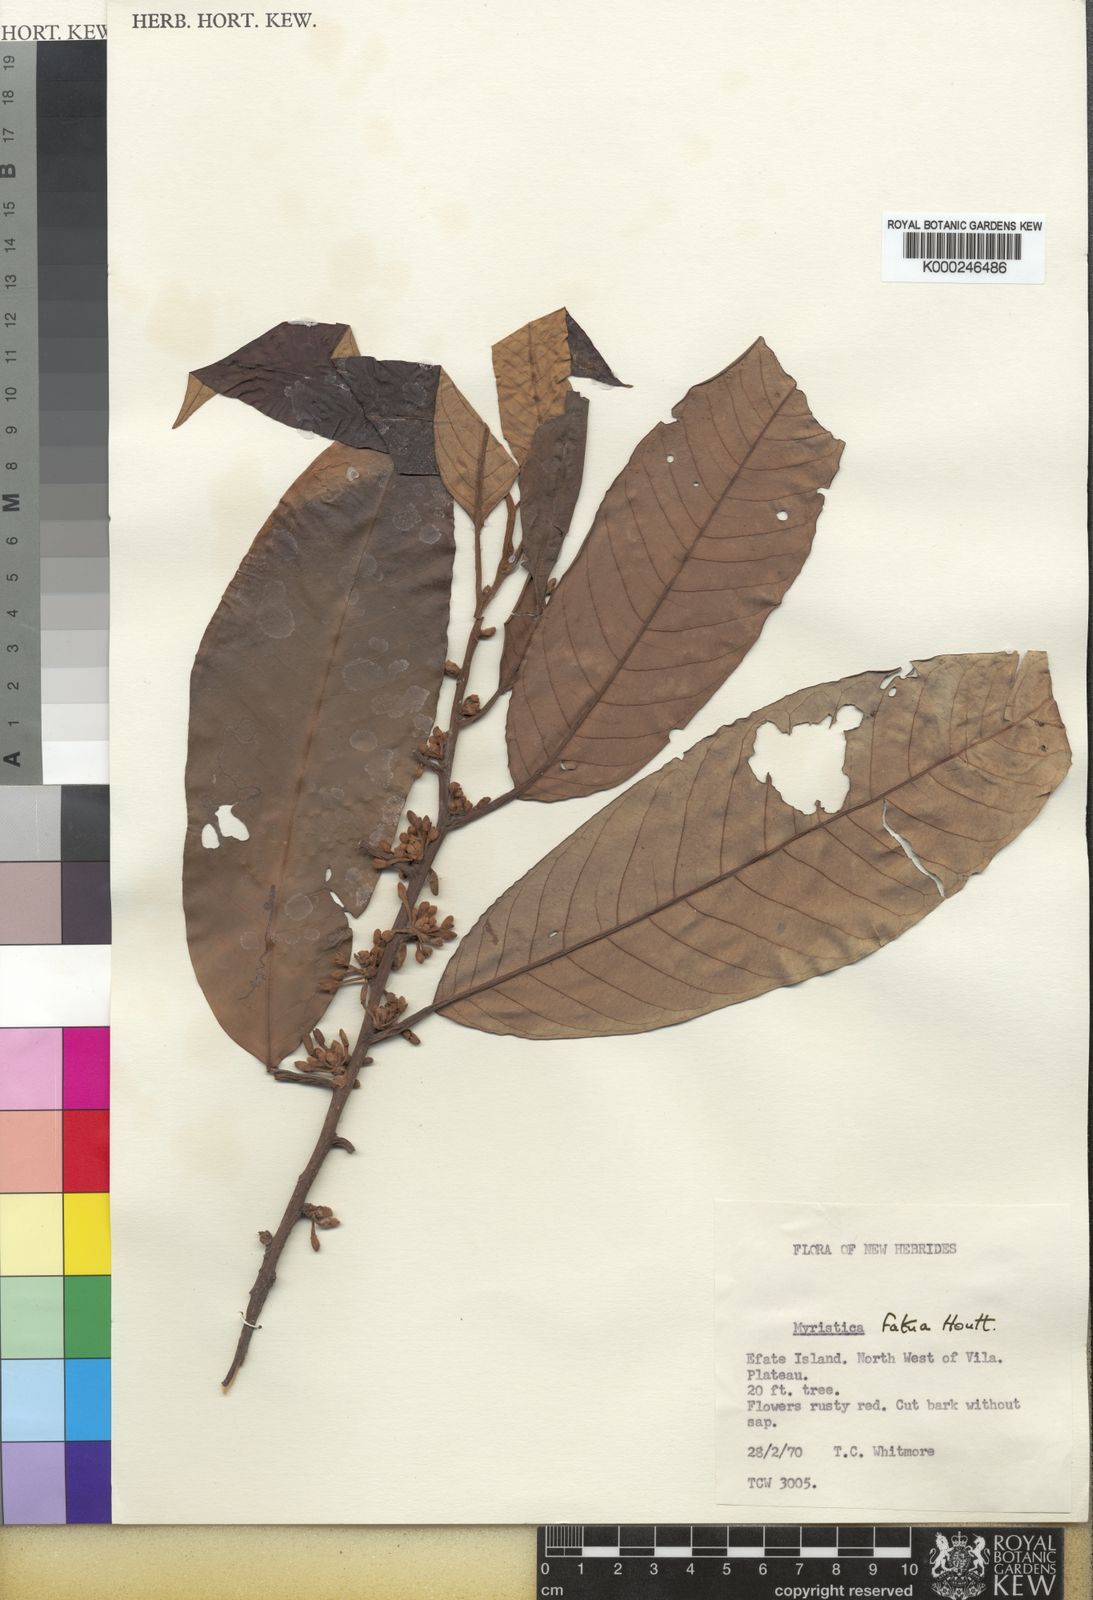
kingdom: Plantae
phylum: Tracheophyta
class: Magnoliopsida
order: Magnoliales
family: Myristicaceae
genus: Myristica
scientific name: Myristica fatua
